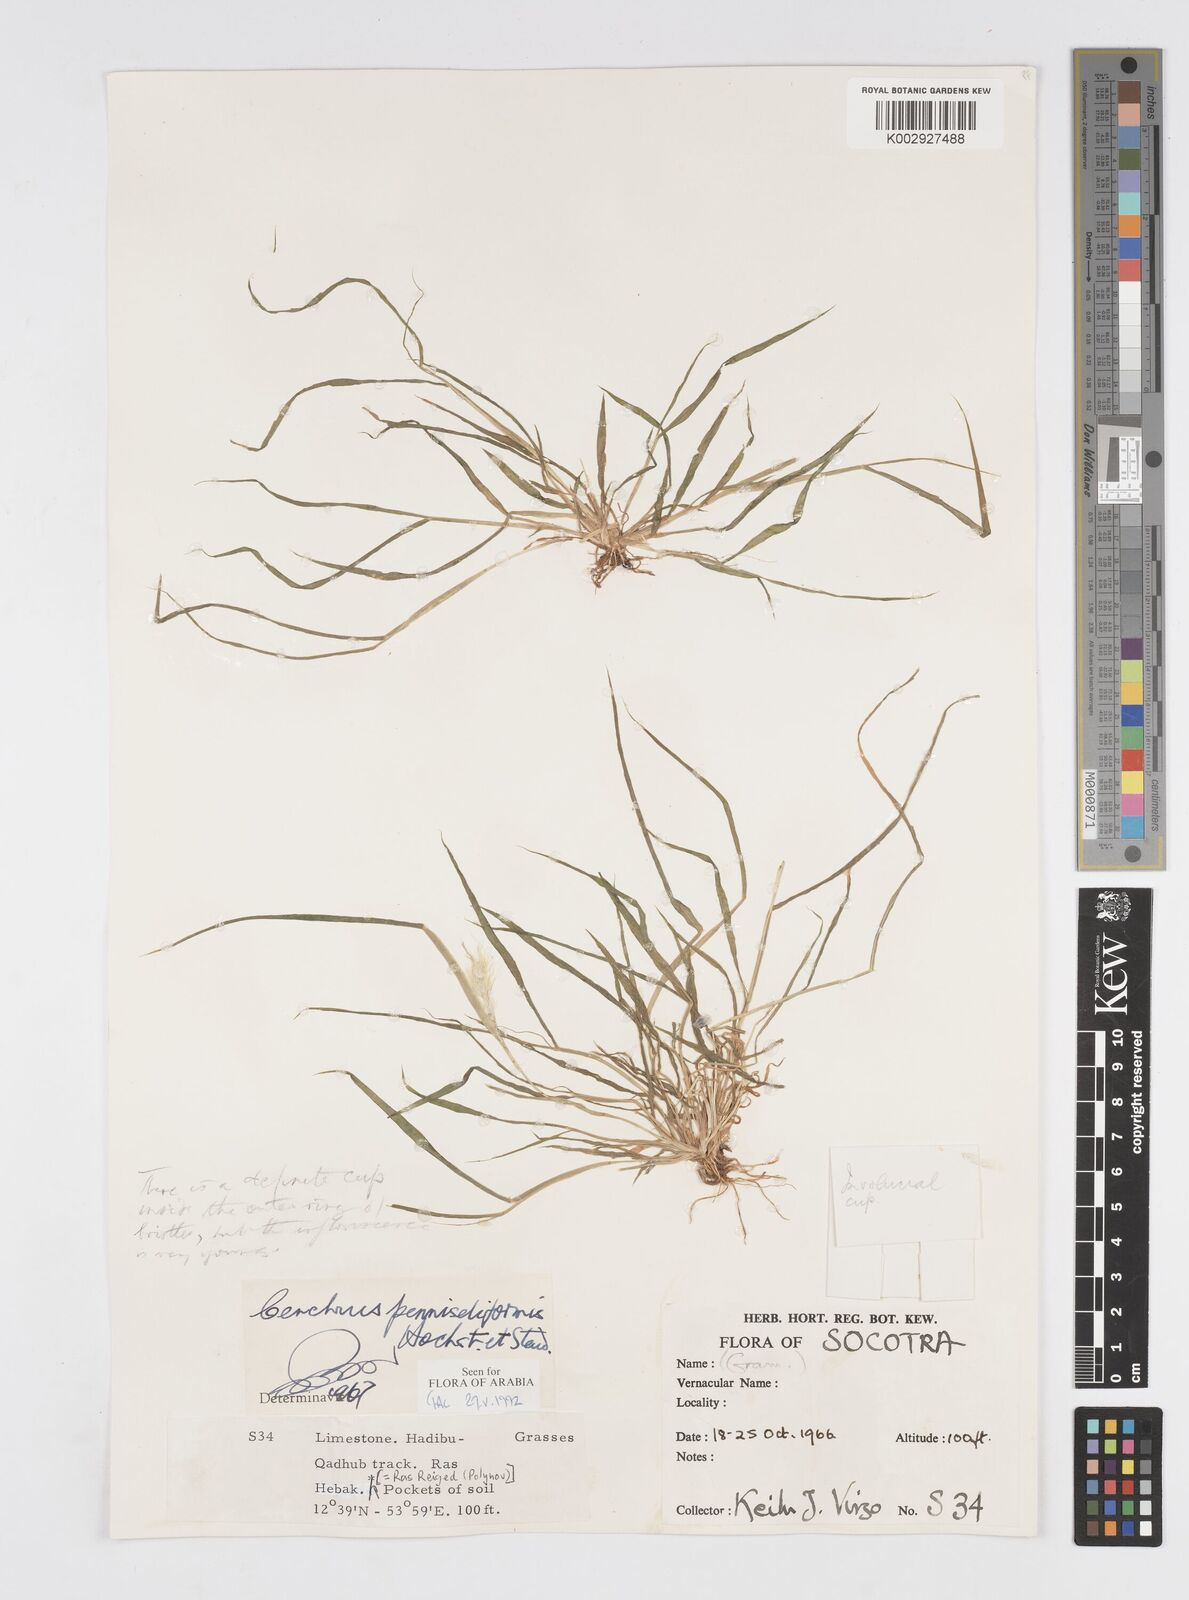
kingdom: Plantae
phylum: Tracheophyta
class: Liliopsida
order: Poales
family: Poaceae
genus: Cenchrus
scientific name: Cenchrus pennisetiformis
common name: Cloncurry
